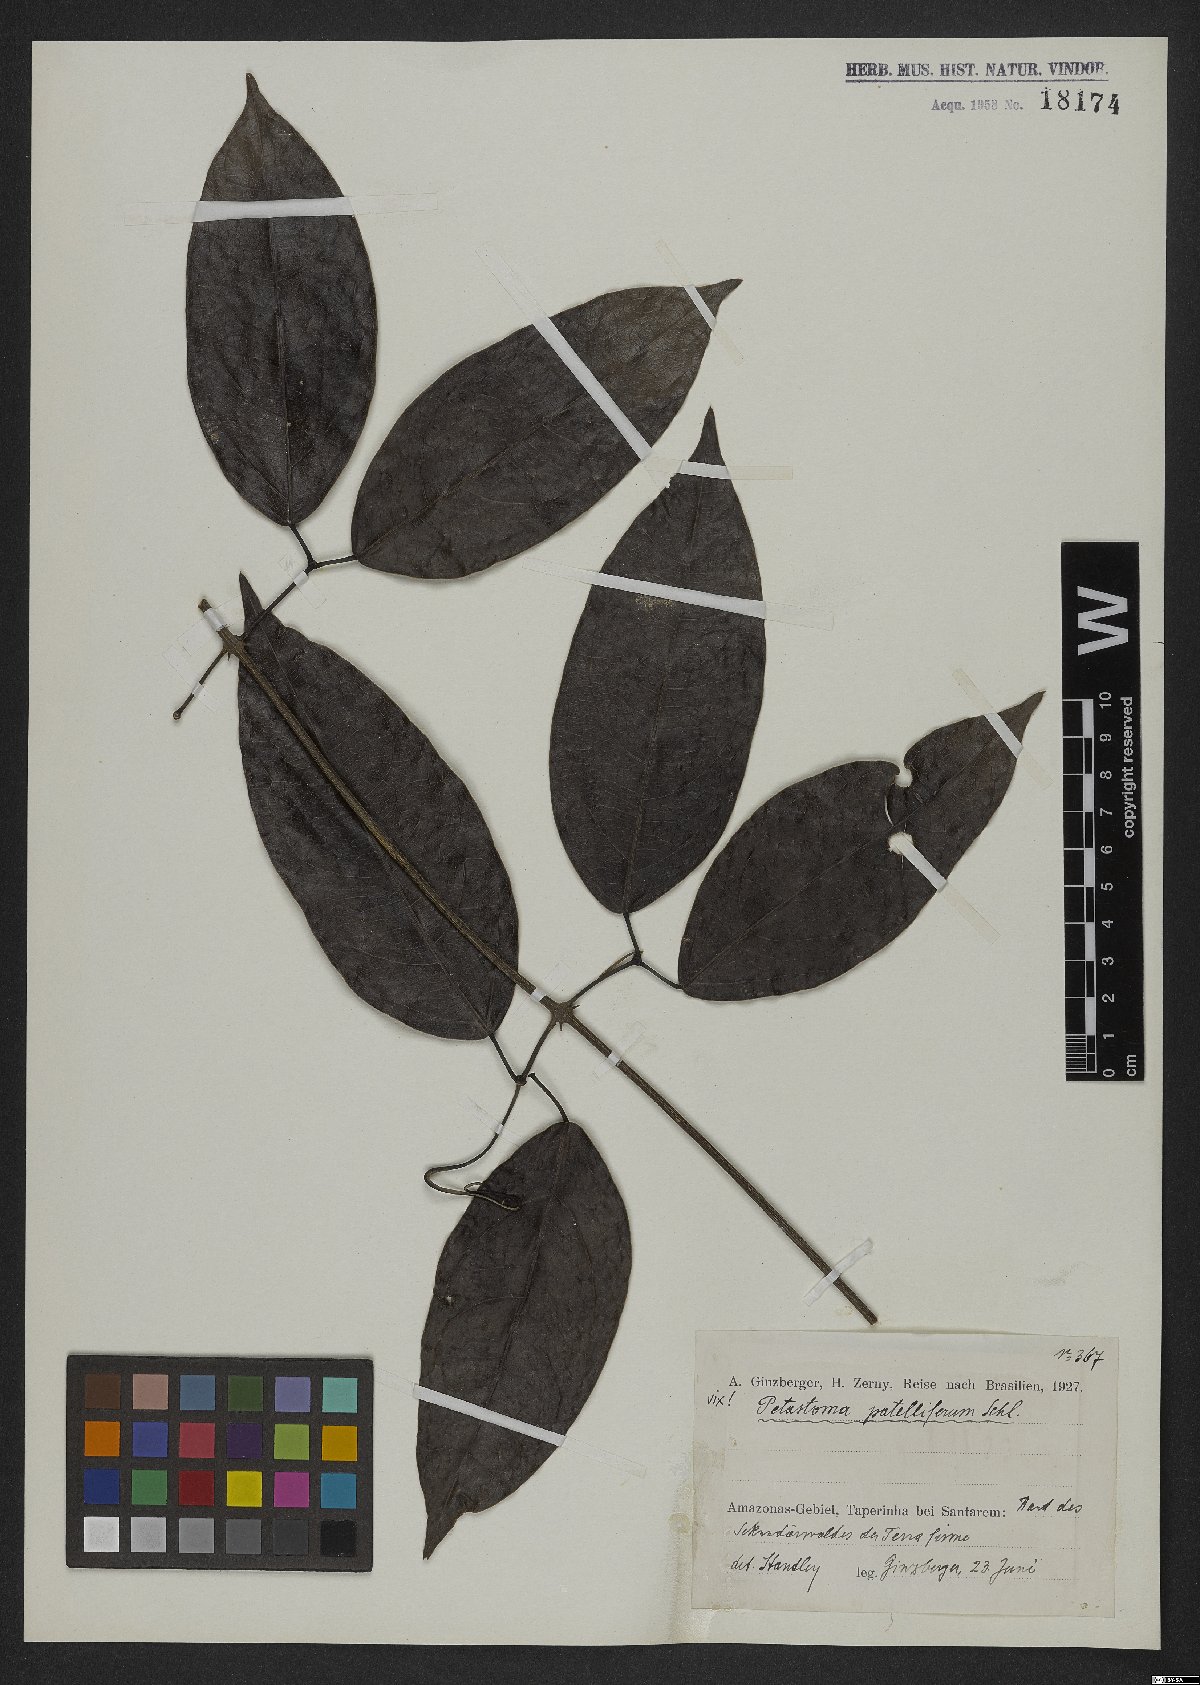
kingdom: Plantae
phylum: Tracheophyta
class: Magnoliopsida
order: Lamiales
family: Bignoniaceae
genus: Fridericia
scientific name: Fridericia patellifera
